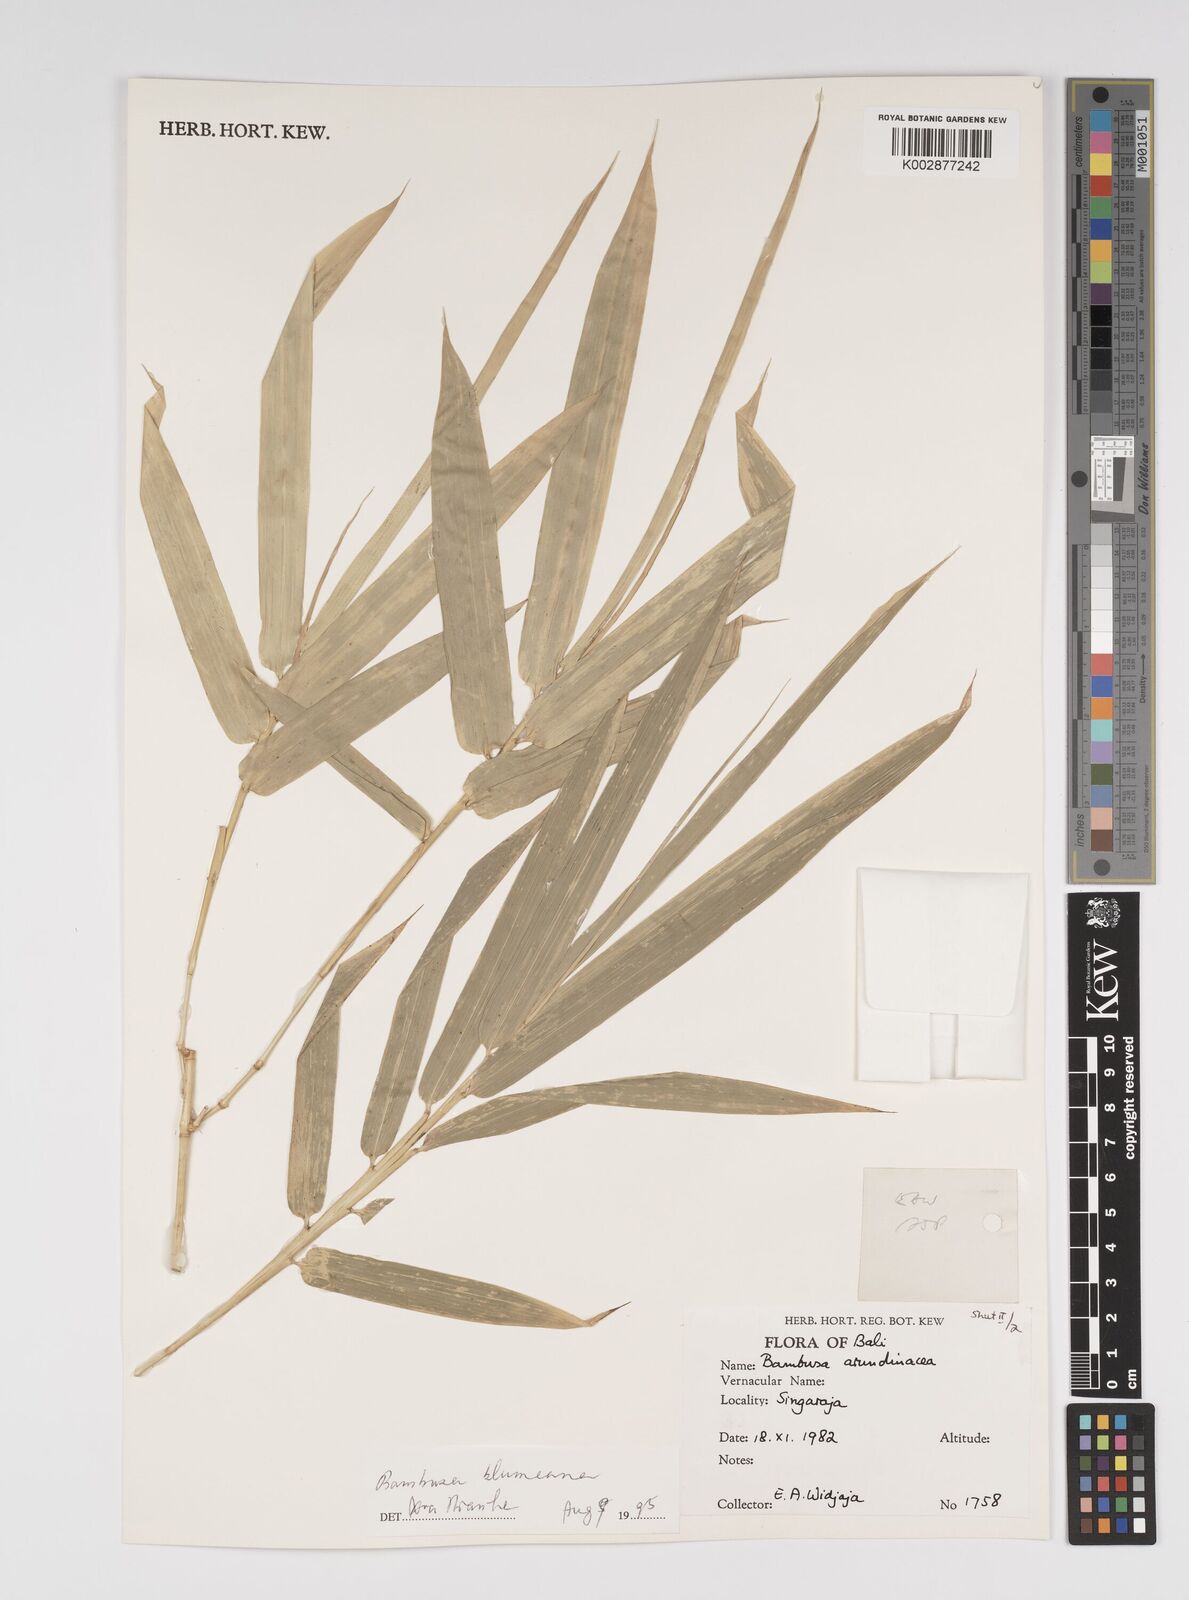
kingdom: Plantae
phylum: Tracheophyta
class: Liliopsida
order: Poales
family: Poaceae
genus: Bambusa
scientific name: Bambusa
